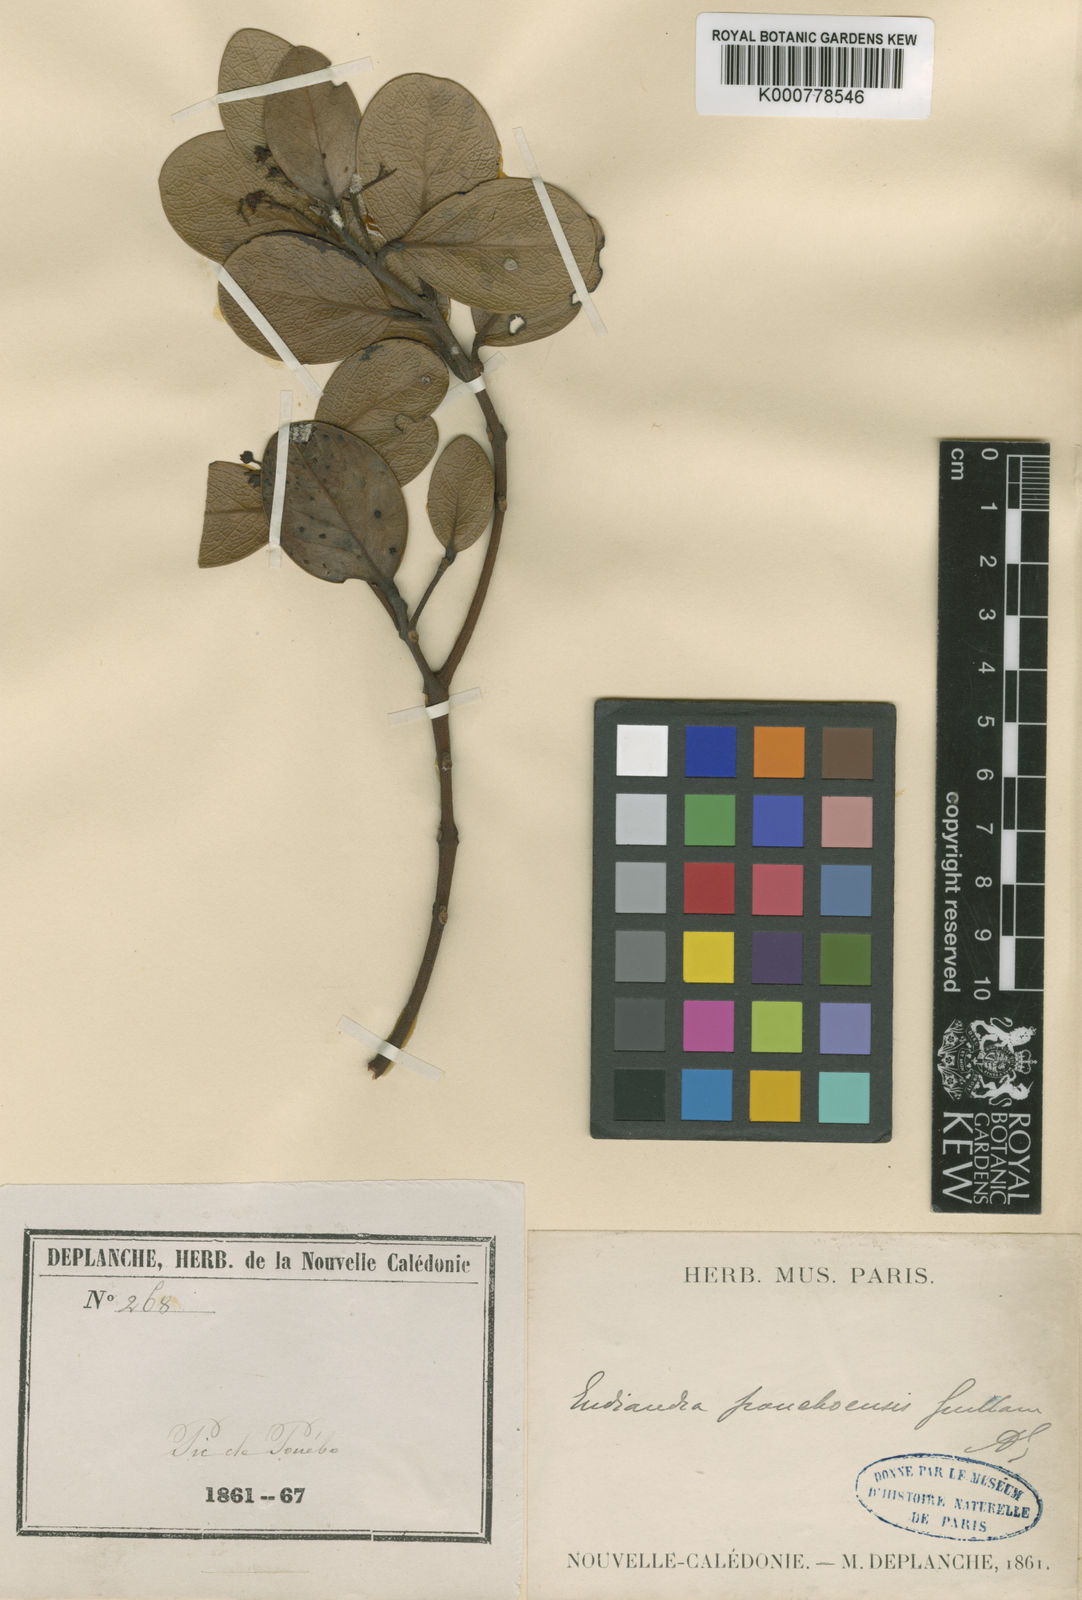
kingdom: Plantae
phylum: Tracheophyta
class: Magnoliopsida
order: Laurales
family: Lauraceae
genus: Endiandra
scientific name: Endiandra poueboensis
